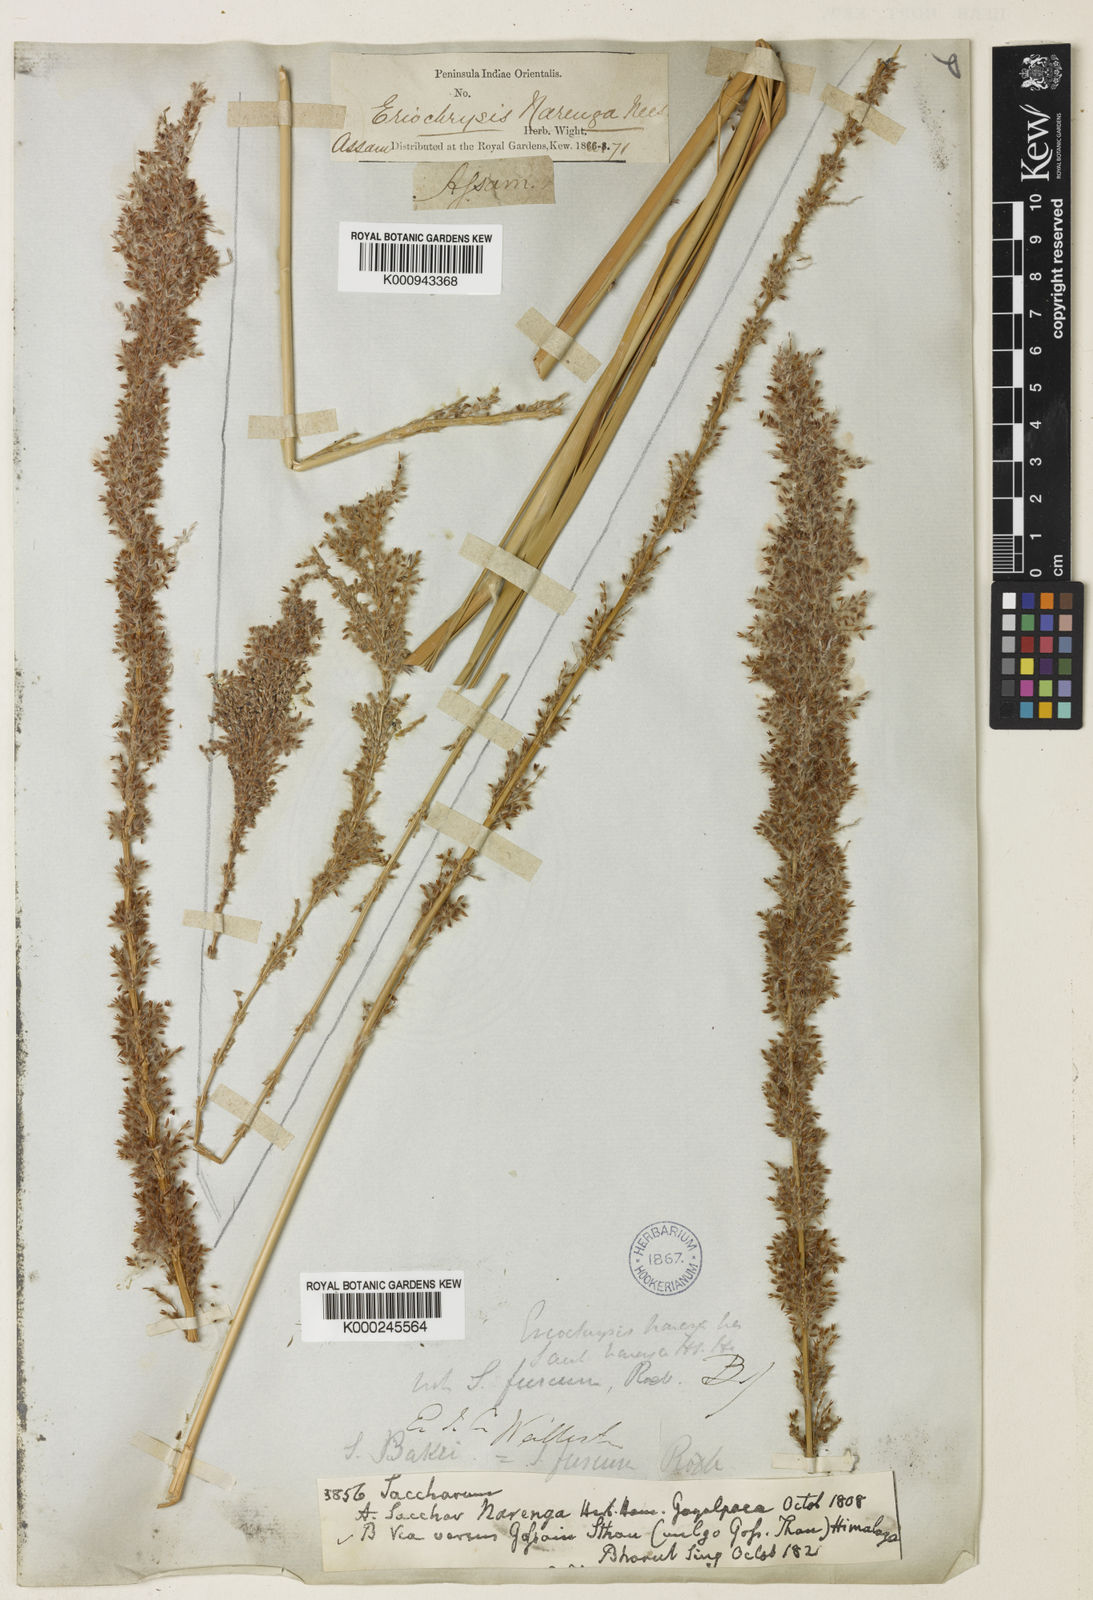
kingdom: Plantae
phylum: Tracheophyta
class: Liliopsida
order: Poales
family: Poaceae
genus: Narenga
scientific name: Narenga porphyrocoma
